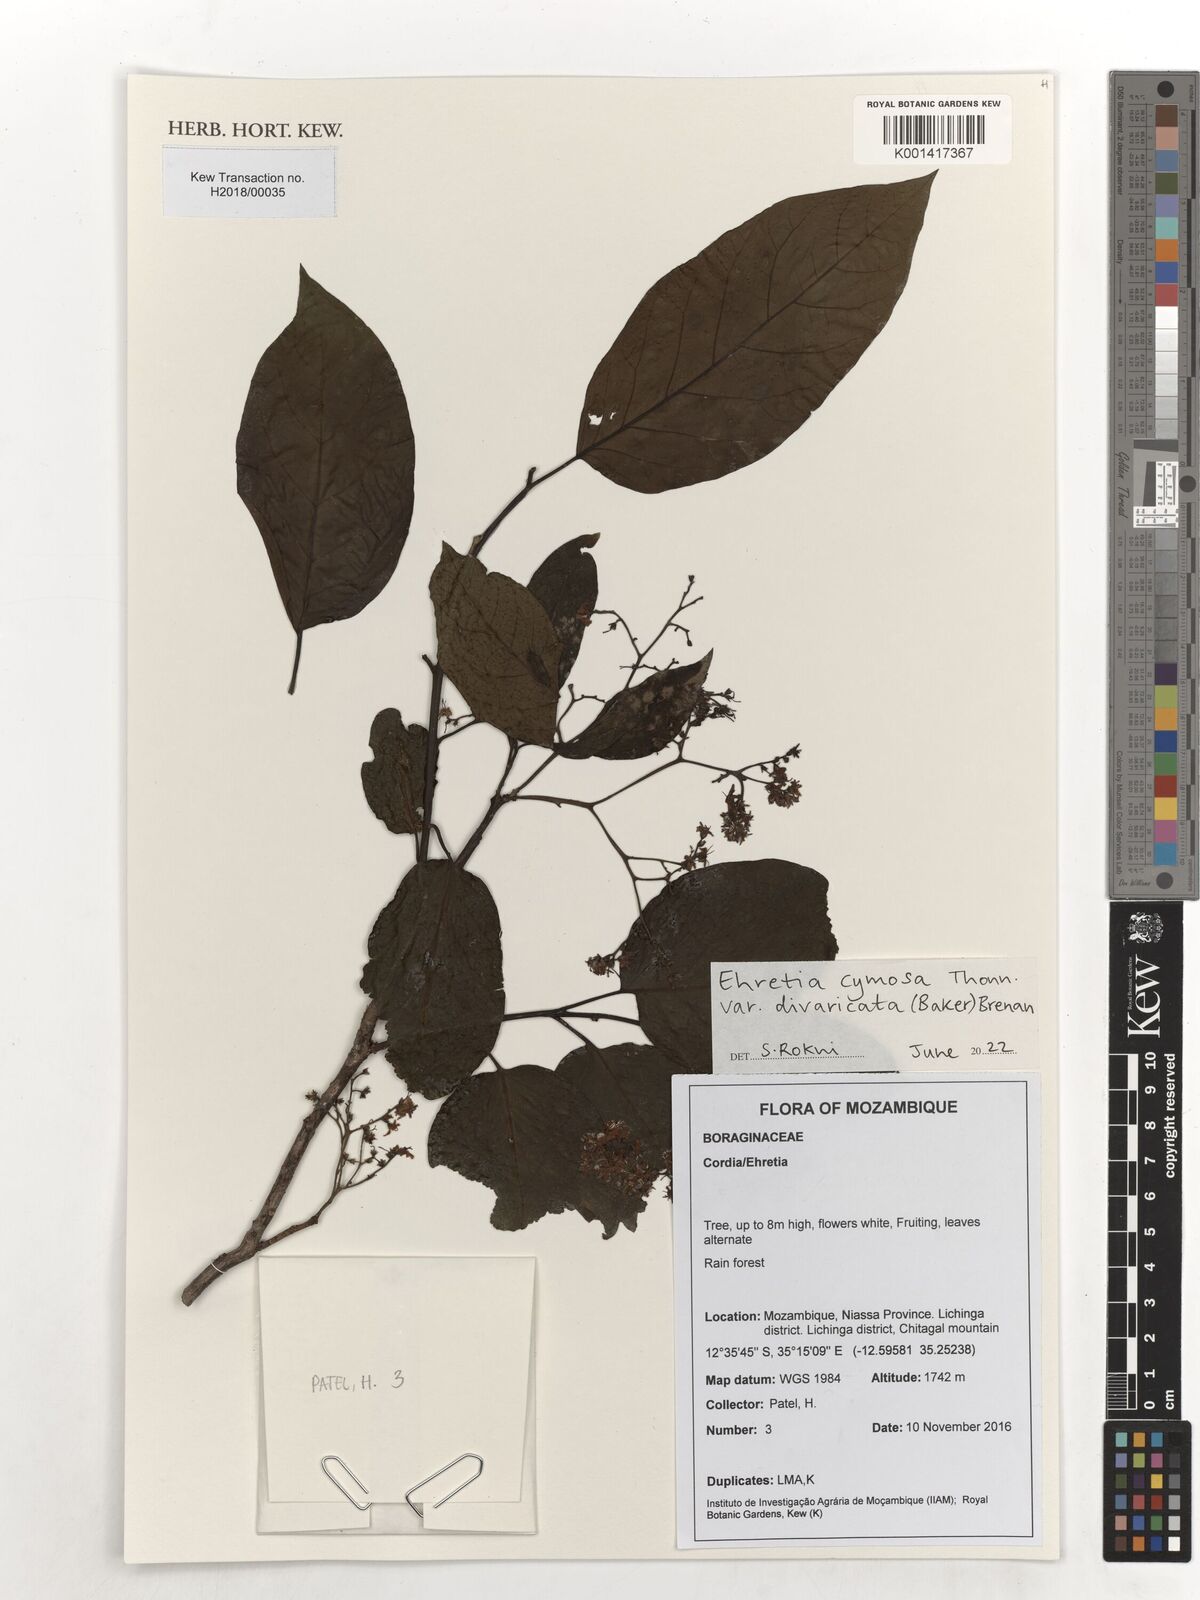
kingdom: Plantae
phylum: Tracheophyta
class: Magnoliopsida
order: Boraginales
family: Ehretiaceae
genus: Ehretia
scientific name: Ehretia cymosa
